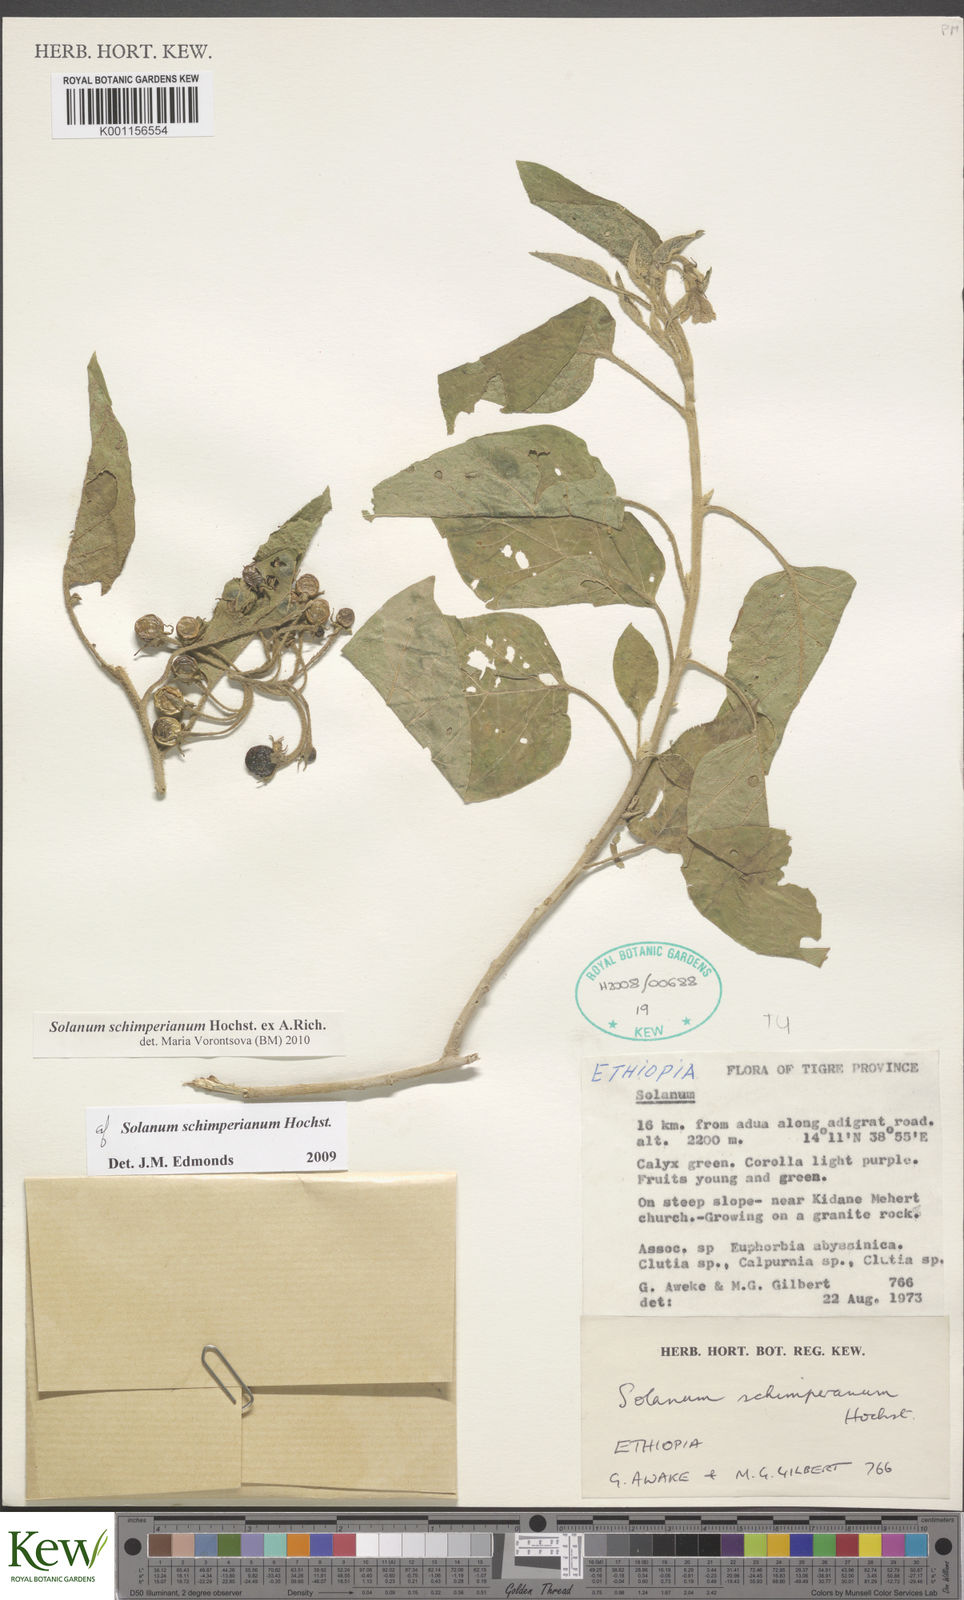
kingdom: Plantae
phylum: Tracheophyta
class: Magnoliopsida
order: Solanales
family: Solanaceae
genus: Solanum
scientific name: Solanum
